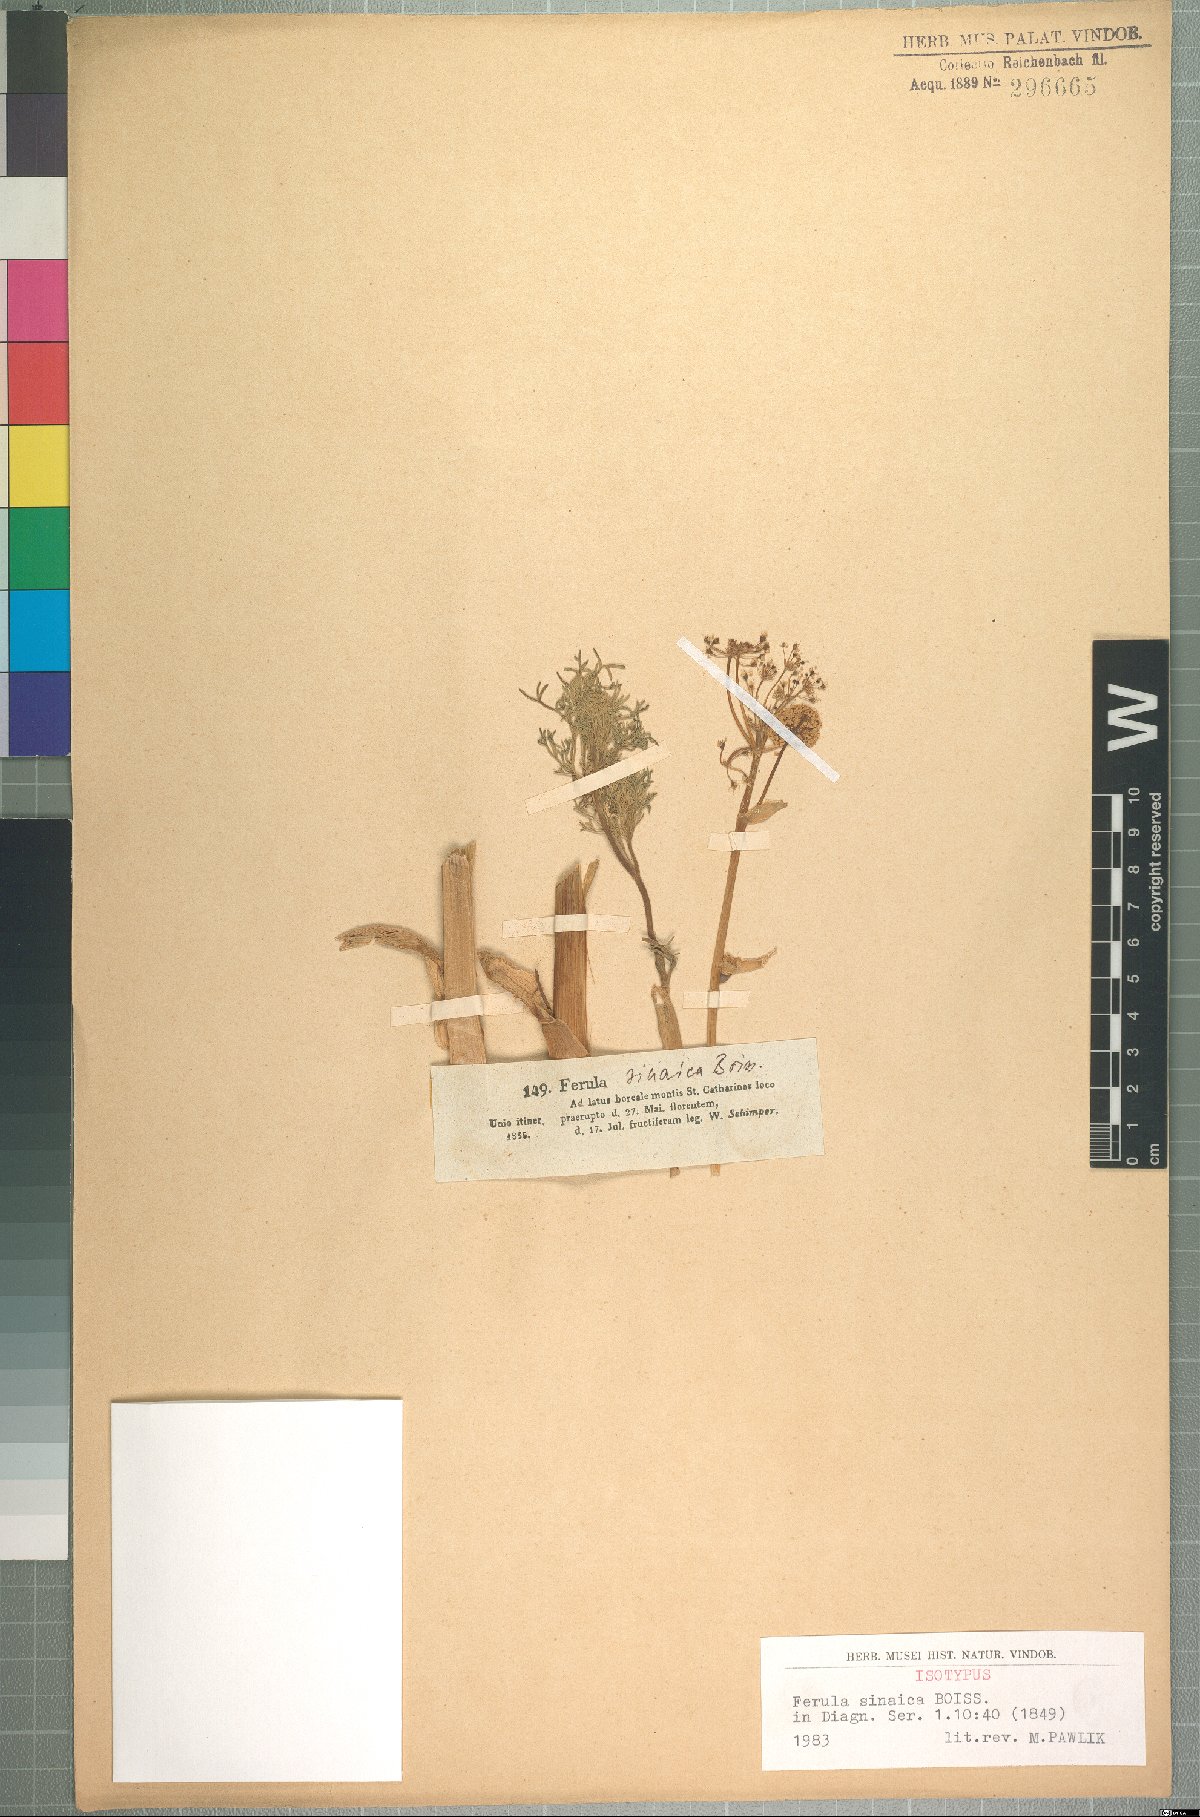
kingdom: Plantae
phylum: Tracheophyta
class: Magnoliopsida
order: Apiales
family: Apiaceae
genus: Ferula
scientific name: Ferula sinaica
